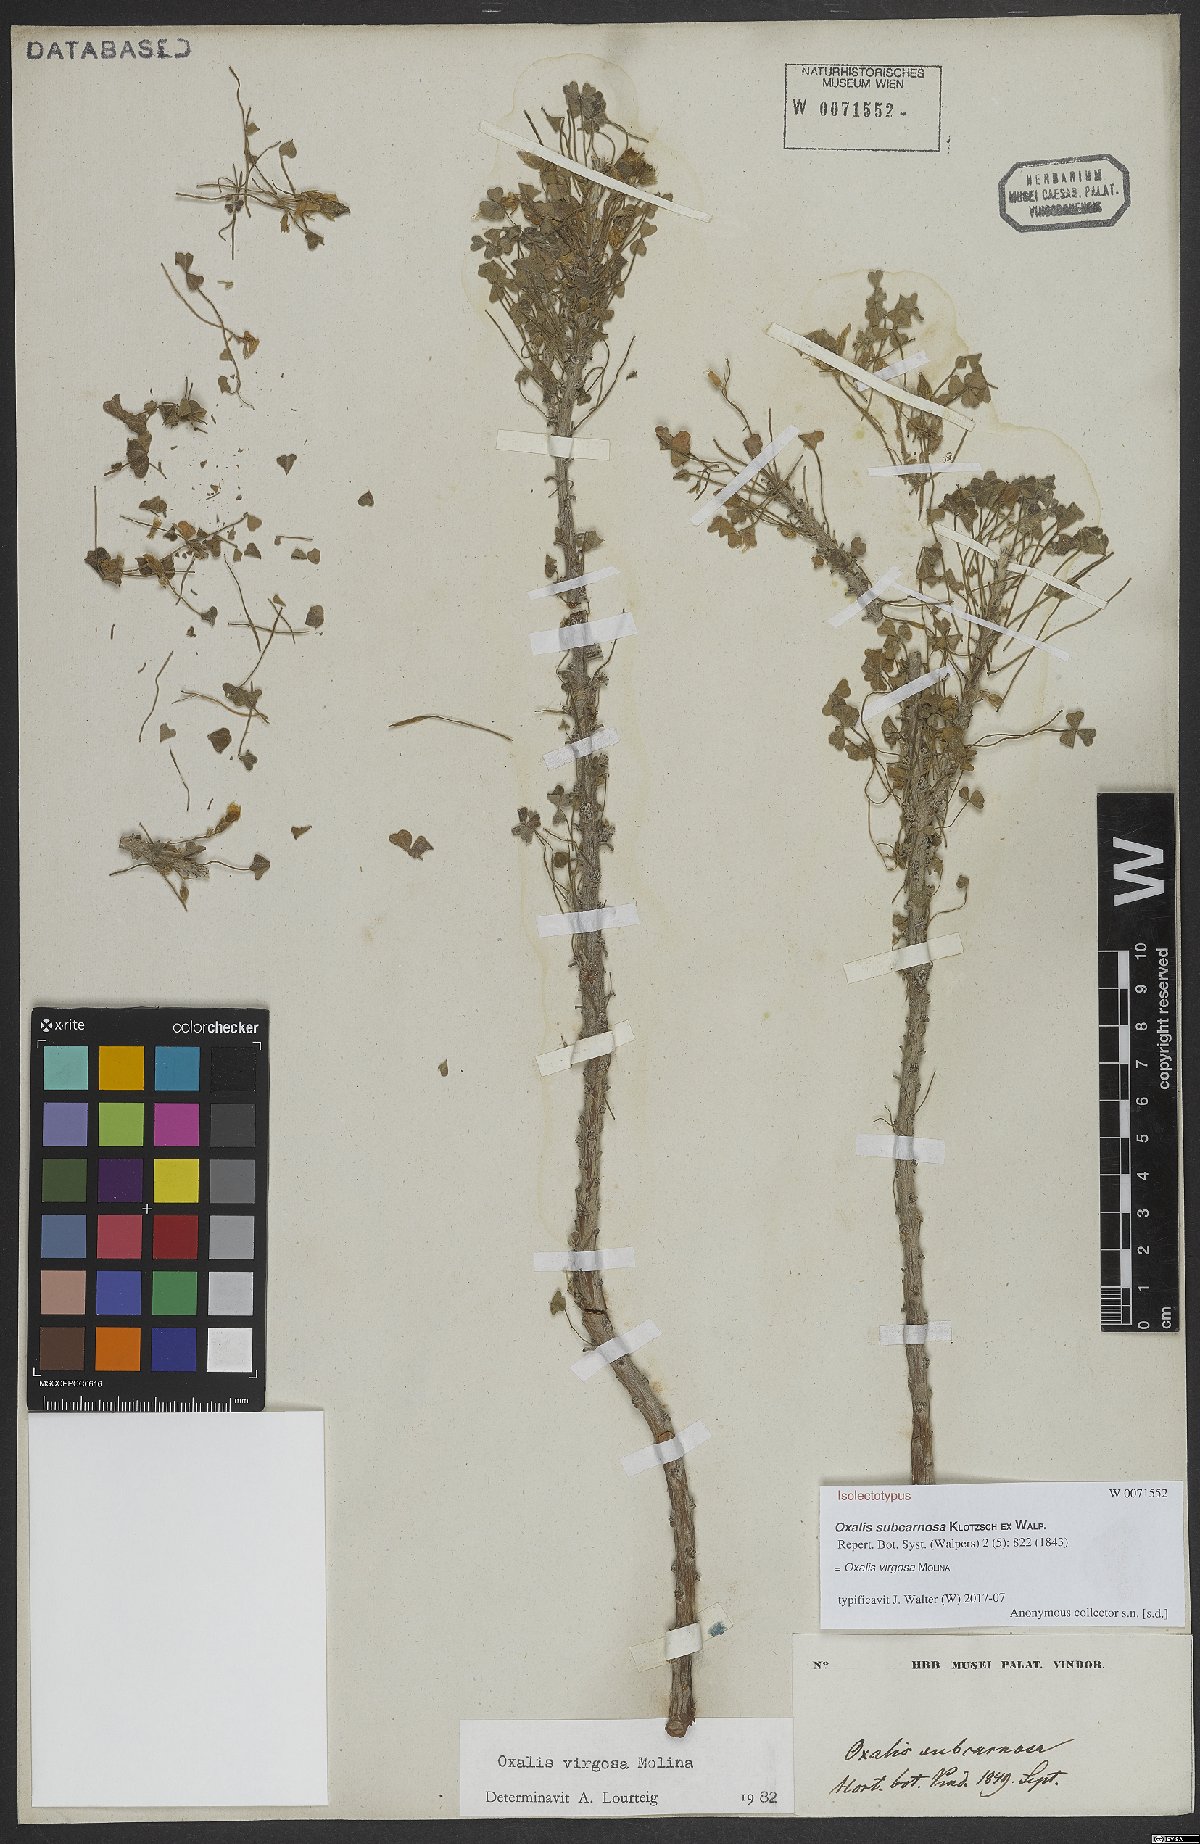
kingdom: Plantae
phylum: Tracheophyta
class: Magnoliopsida
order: Oxalidales
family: Oxalidaceae
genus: Oxalis
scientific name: Oxalis virgosa
